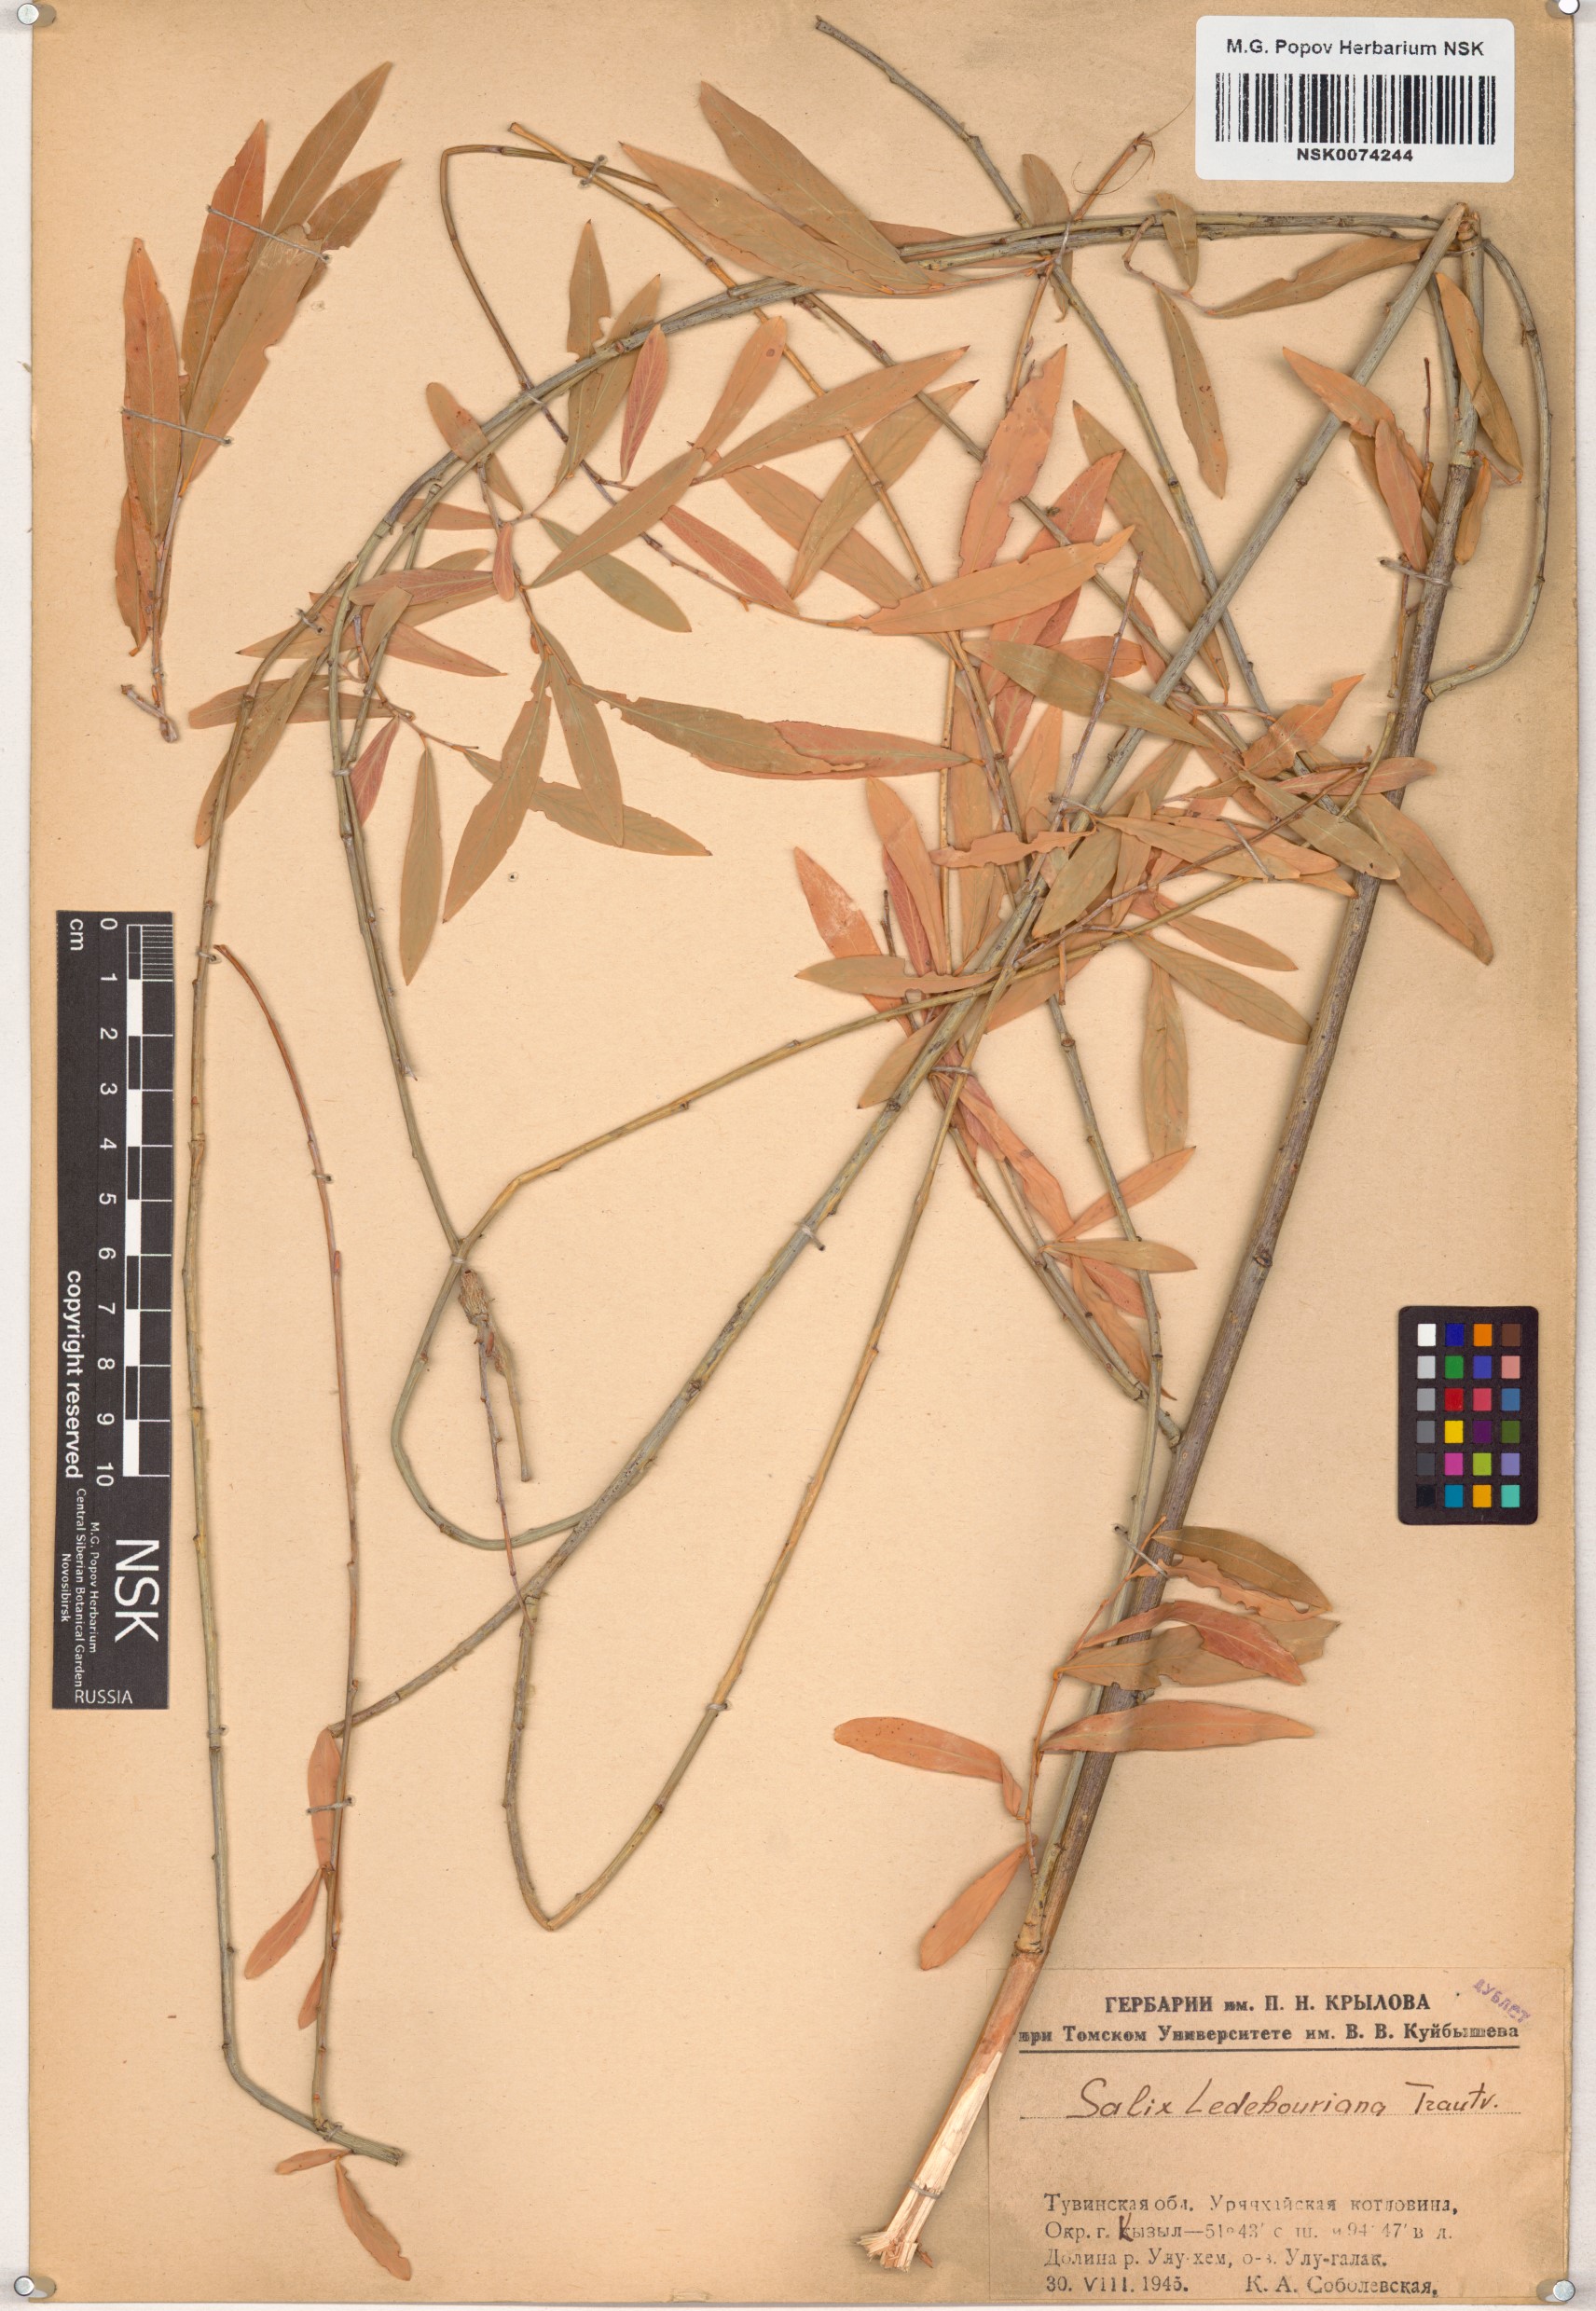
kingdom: Plantae
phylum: Tracheophyta
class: Magnoliopsida
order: Malpighiales
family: Salicaceae
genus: Salix
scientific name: Salix ledebouriana
